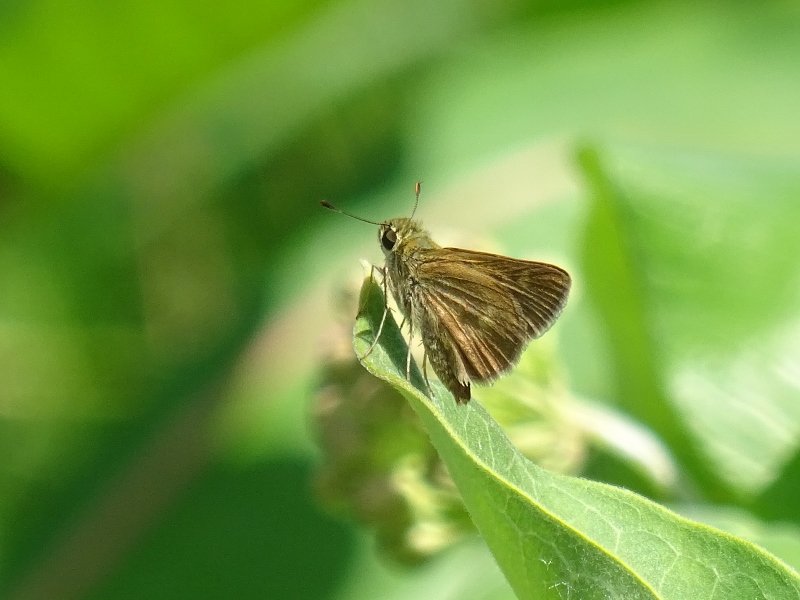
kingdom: Animalia
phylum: Arthropoda
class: Insecta
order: Lepidoptera
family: Hesperiidae
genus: Polites
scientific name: Polites egeremet
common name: Northern Broken-Dash
